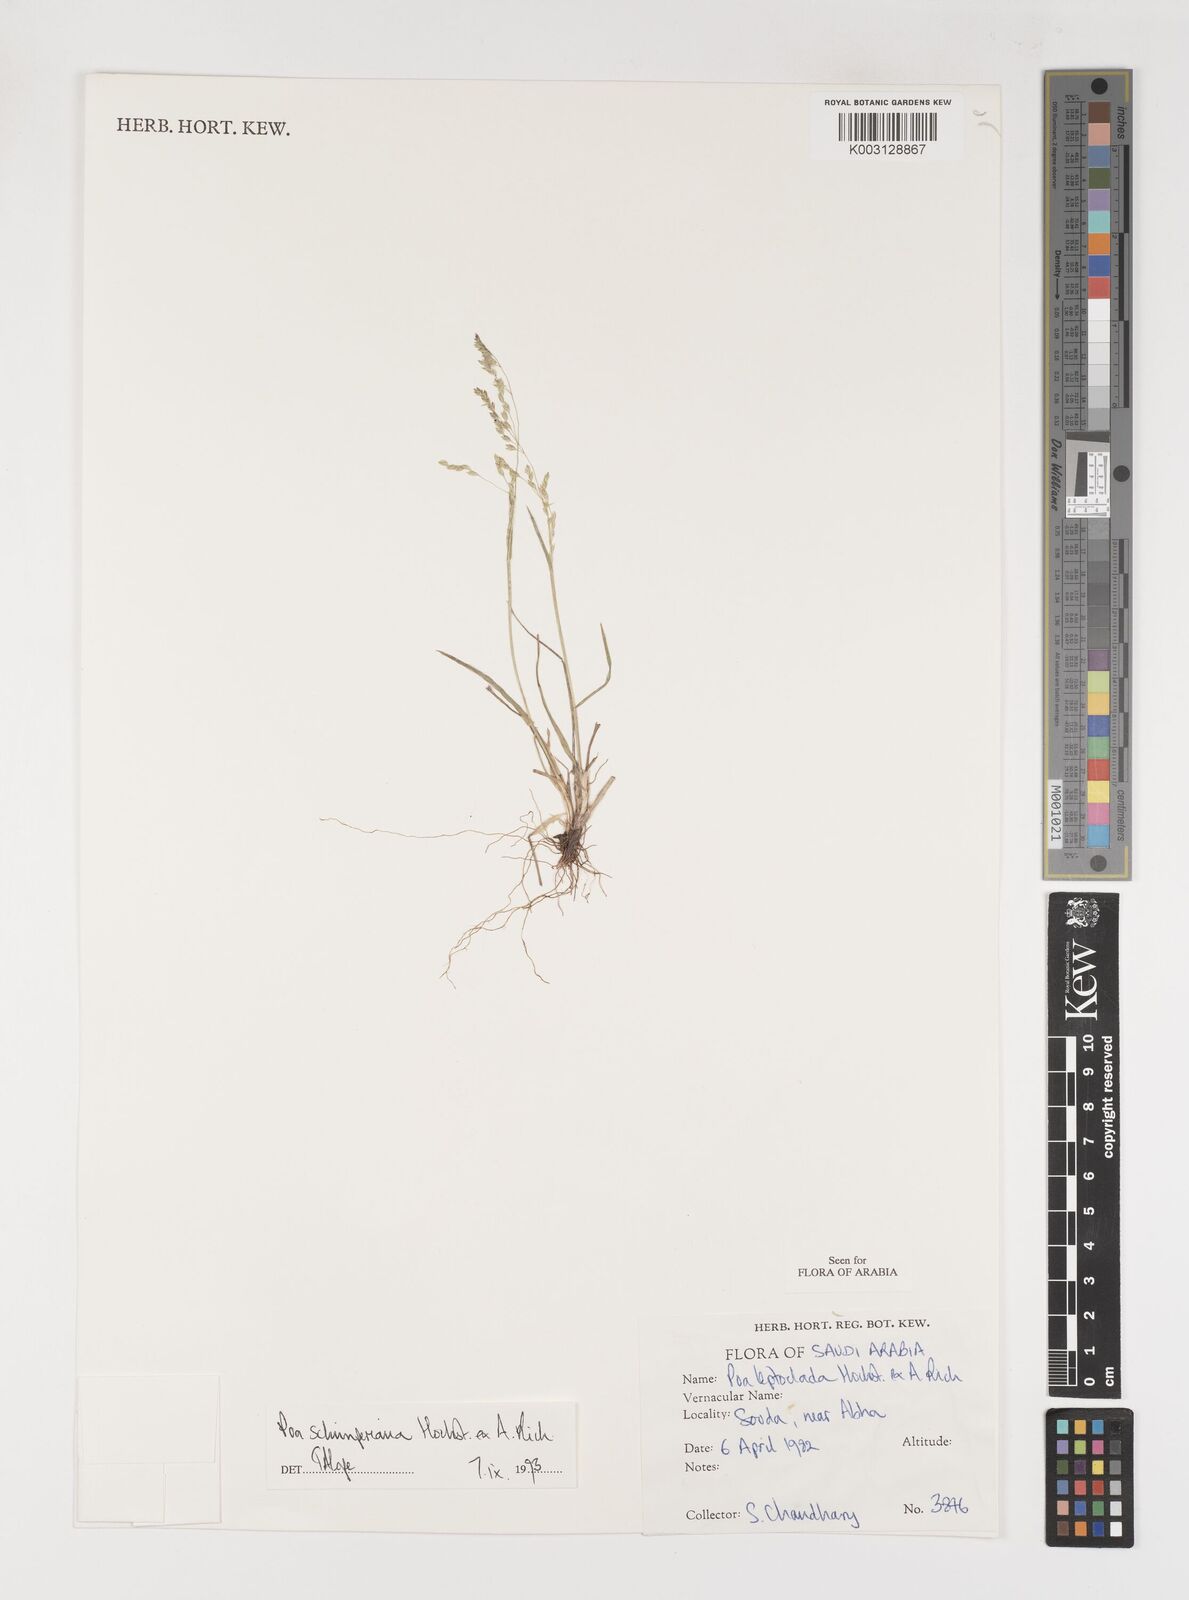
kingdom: Plantae
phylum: Tracheophyta
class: Liliopsida
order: Poales
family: Poaceae
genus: Poa
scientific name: Poa schimperiana
